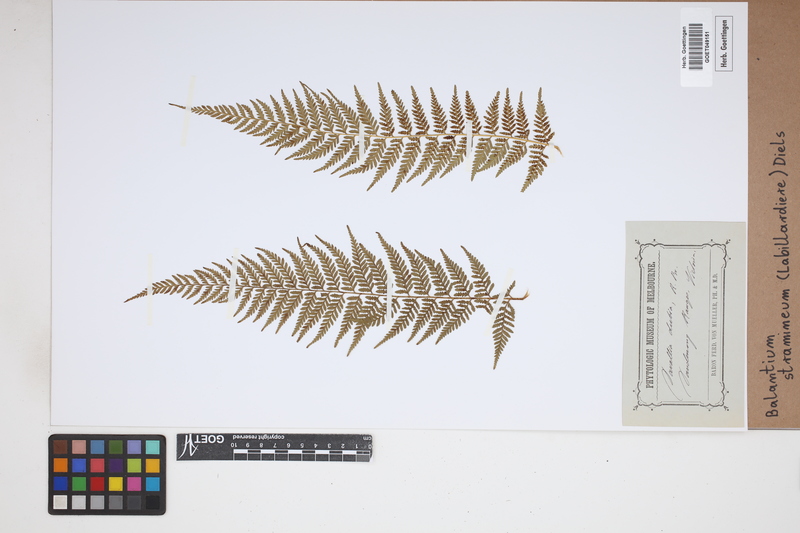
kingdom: Plantae
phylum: Tracheophyta
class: Polypodiopsida
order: Cyatheales
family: Dicksoniaceae
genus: Calochlaena
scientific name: Calochlaena straminea
